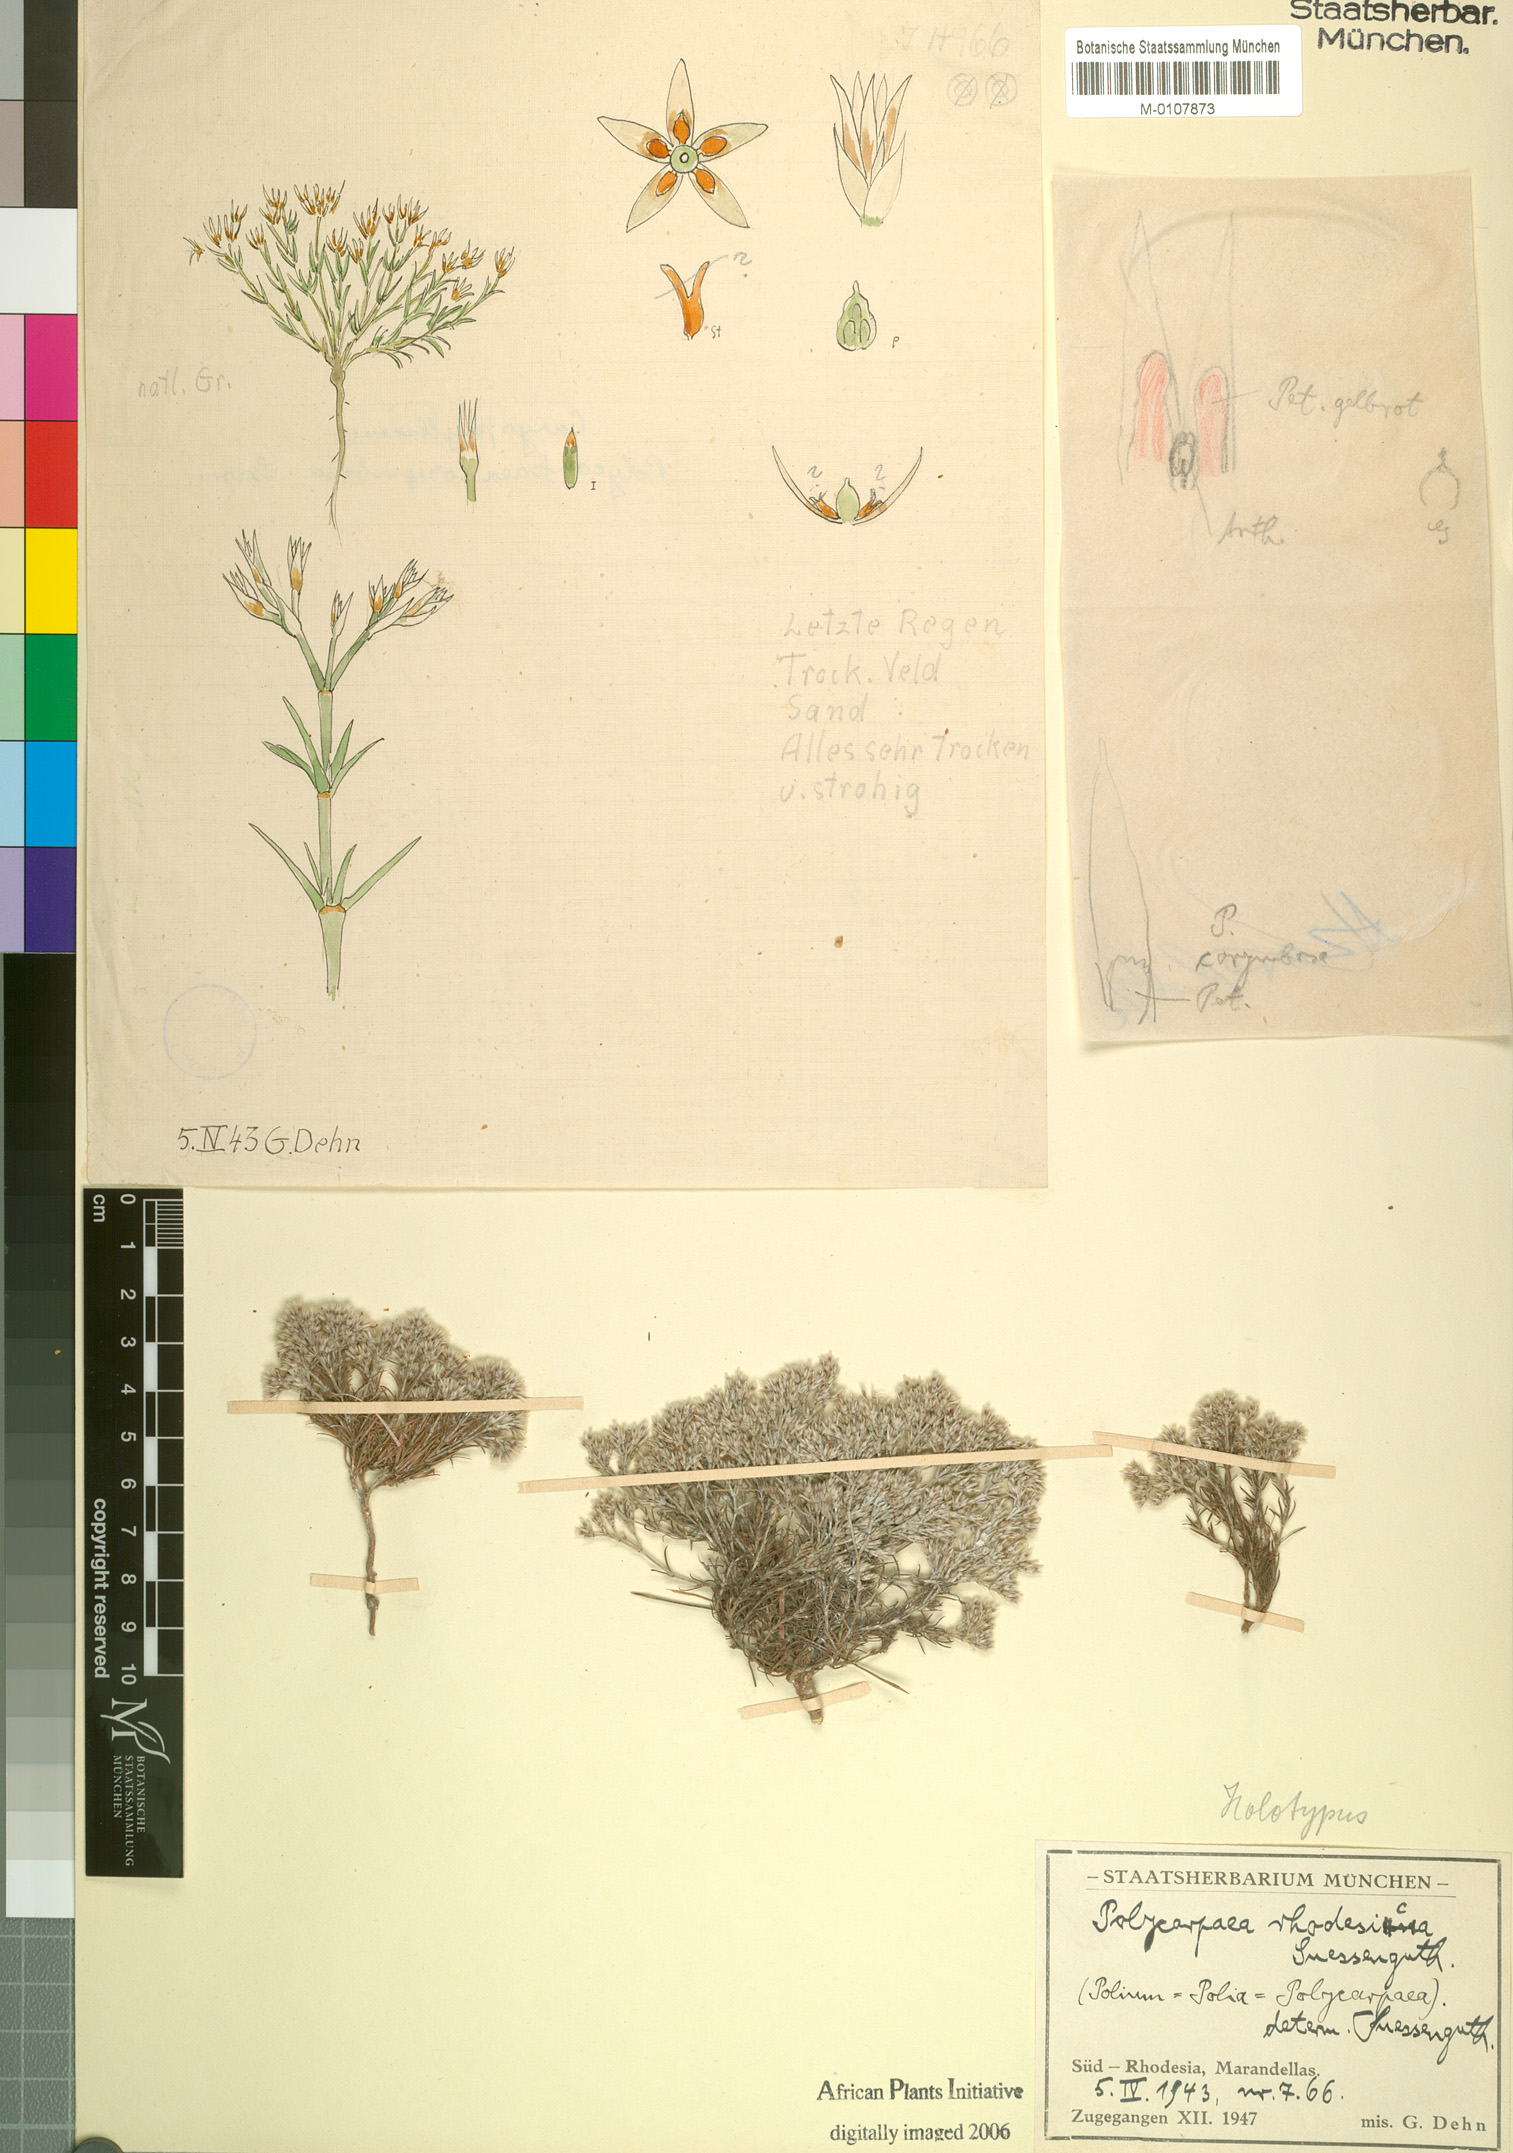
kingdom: Plantae
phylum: Tracheophyta
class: Magnoliopsida
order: Caryophyllales
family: Caryophyllaceae
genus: Polycarpaea
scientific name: Polycarpaea eriantha
